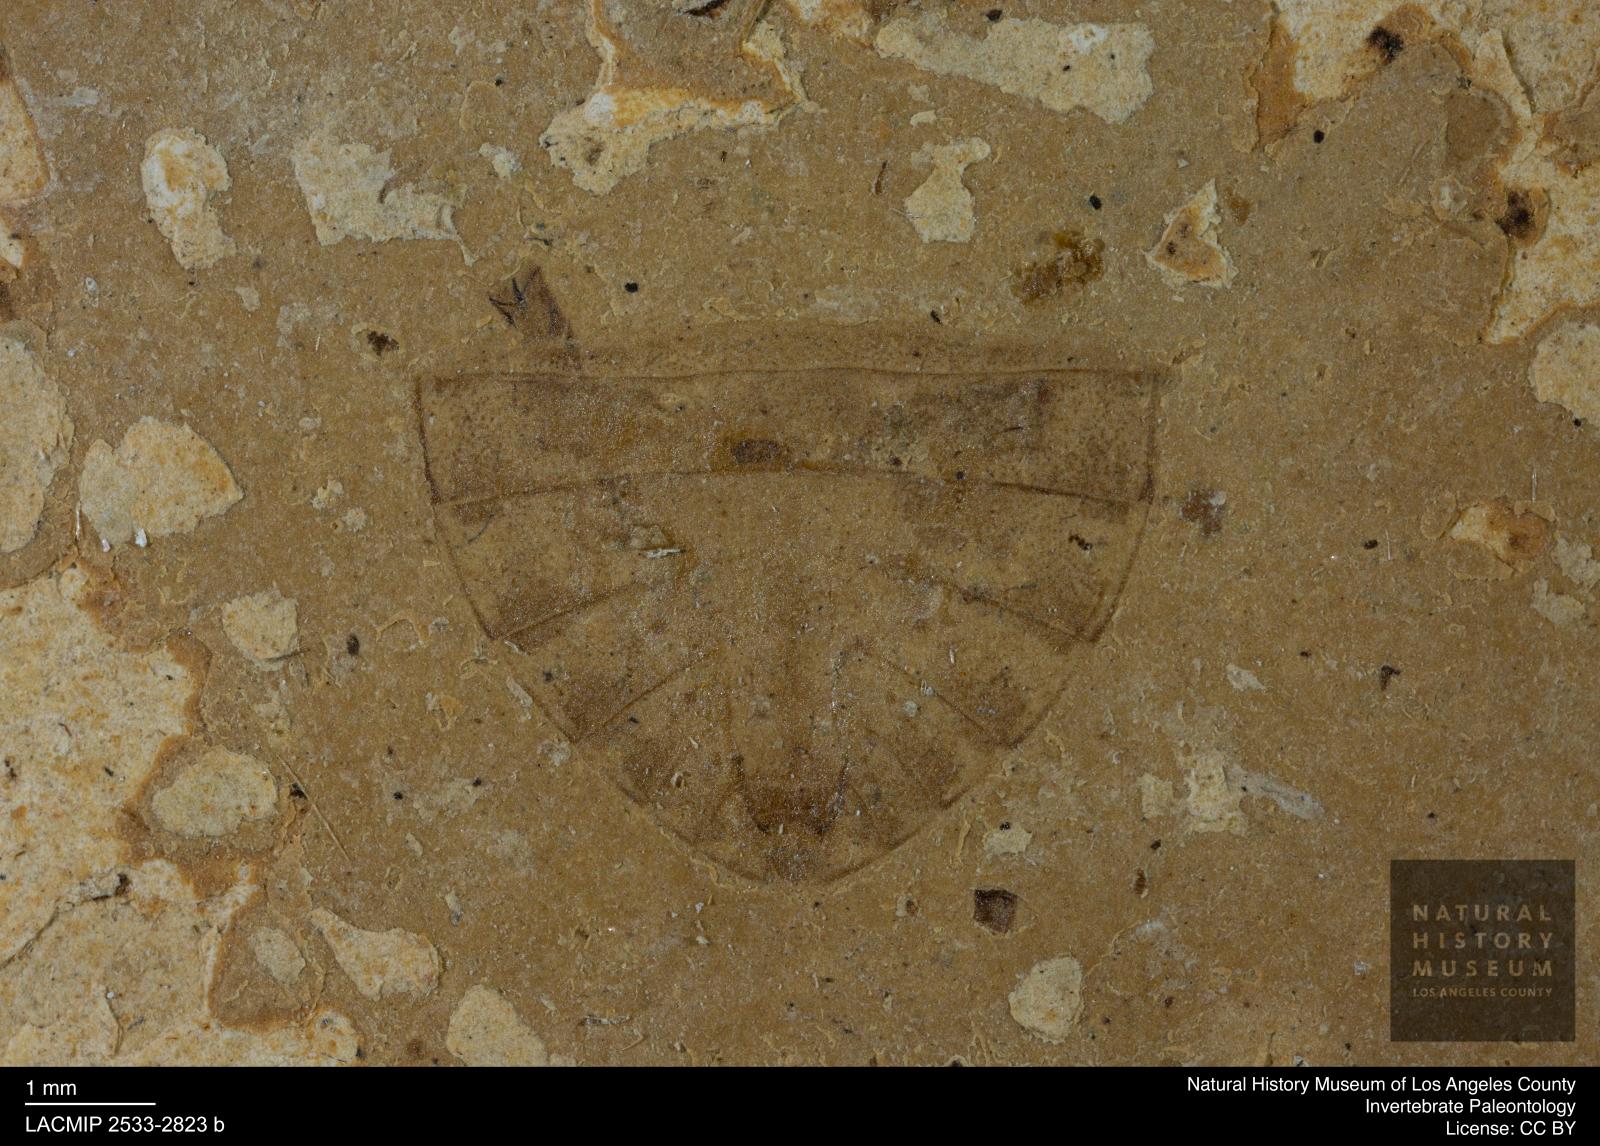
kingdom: Animalia
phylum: Arthropoda
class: Insecta
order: Hemiptera
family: Naucoridae
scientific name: Naucoridae
